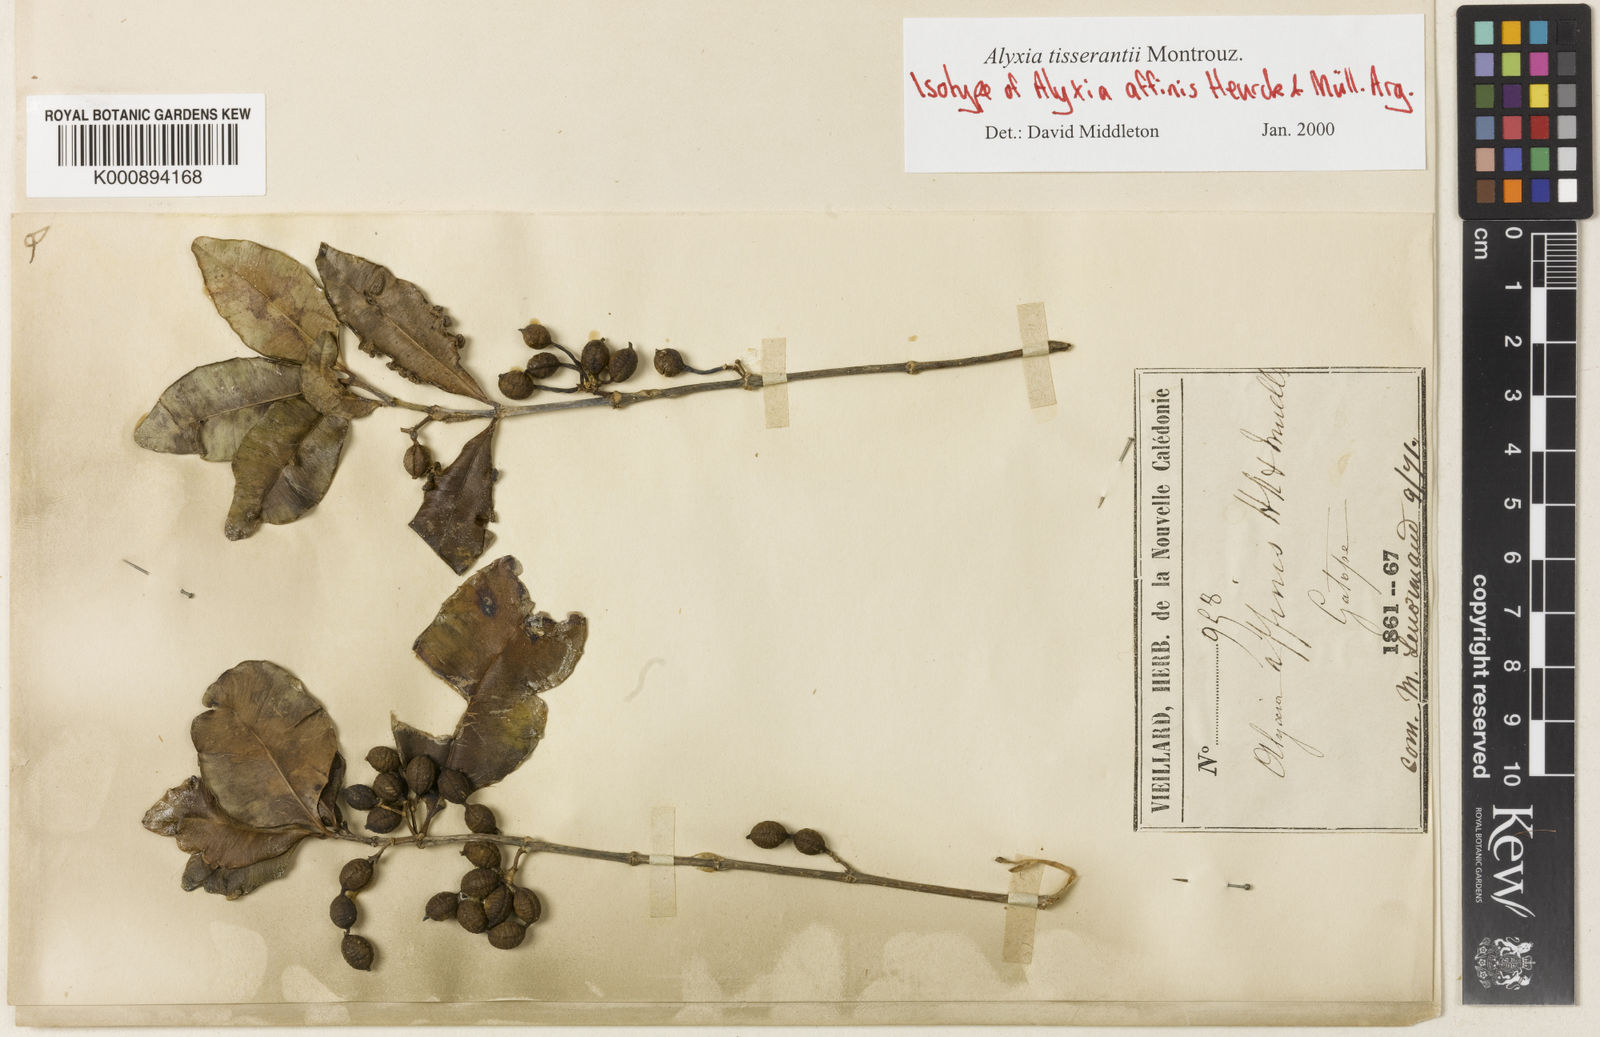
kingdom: Plantae
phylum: Tracheophyta
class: Magnoliopsida
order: Gentianales
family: Apocynaceae
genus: Alyxia
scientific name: Alyxia tisserantii
